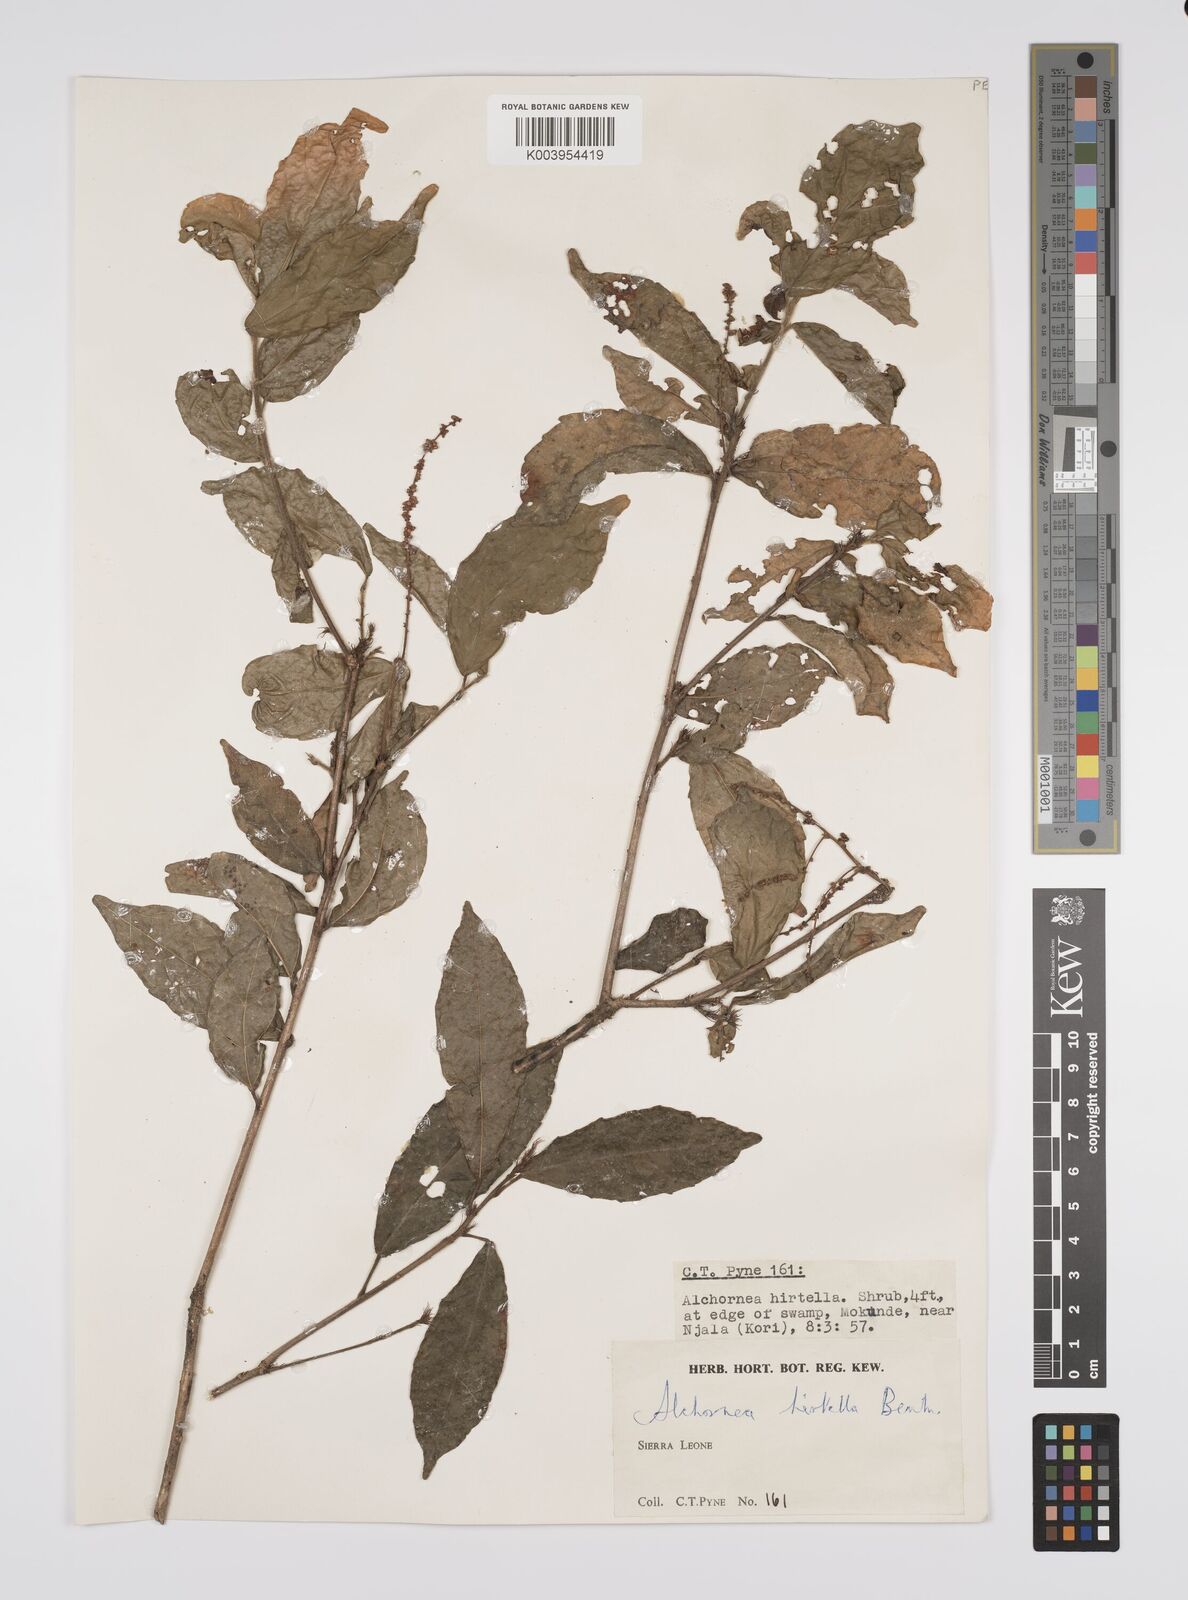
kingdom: Plantae
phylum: Tracheophyta
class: Magnoliopsida
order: Malpighiales
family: Euphorbiaceae
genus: Alchornea
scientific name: Alchornea hirtella
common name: Forest bead-string
